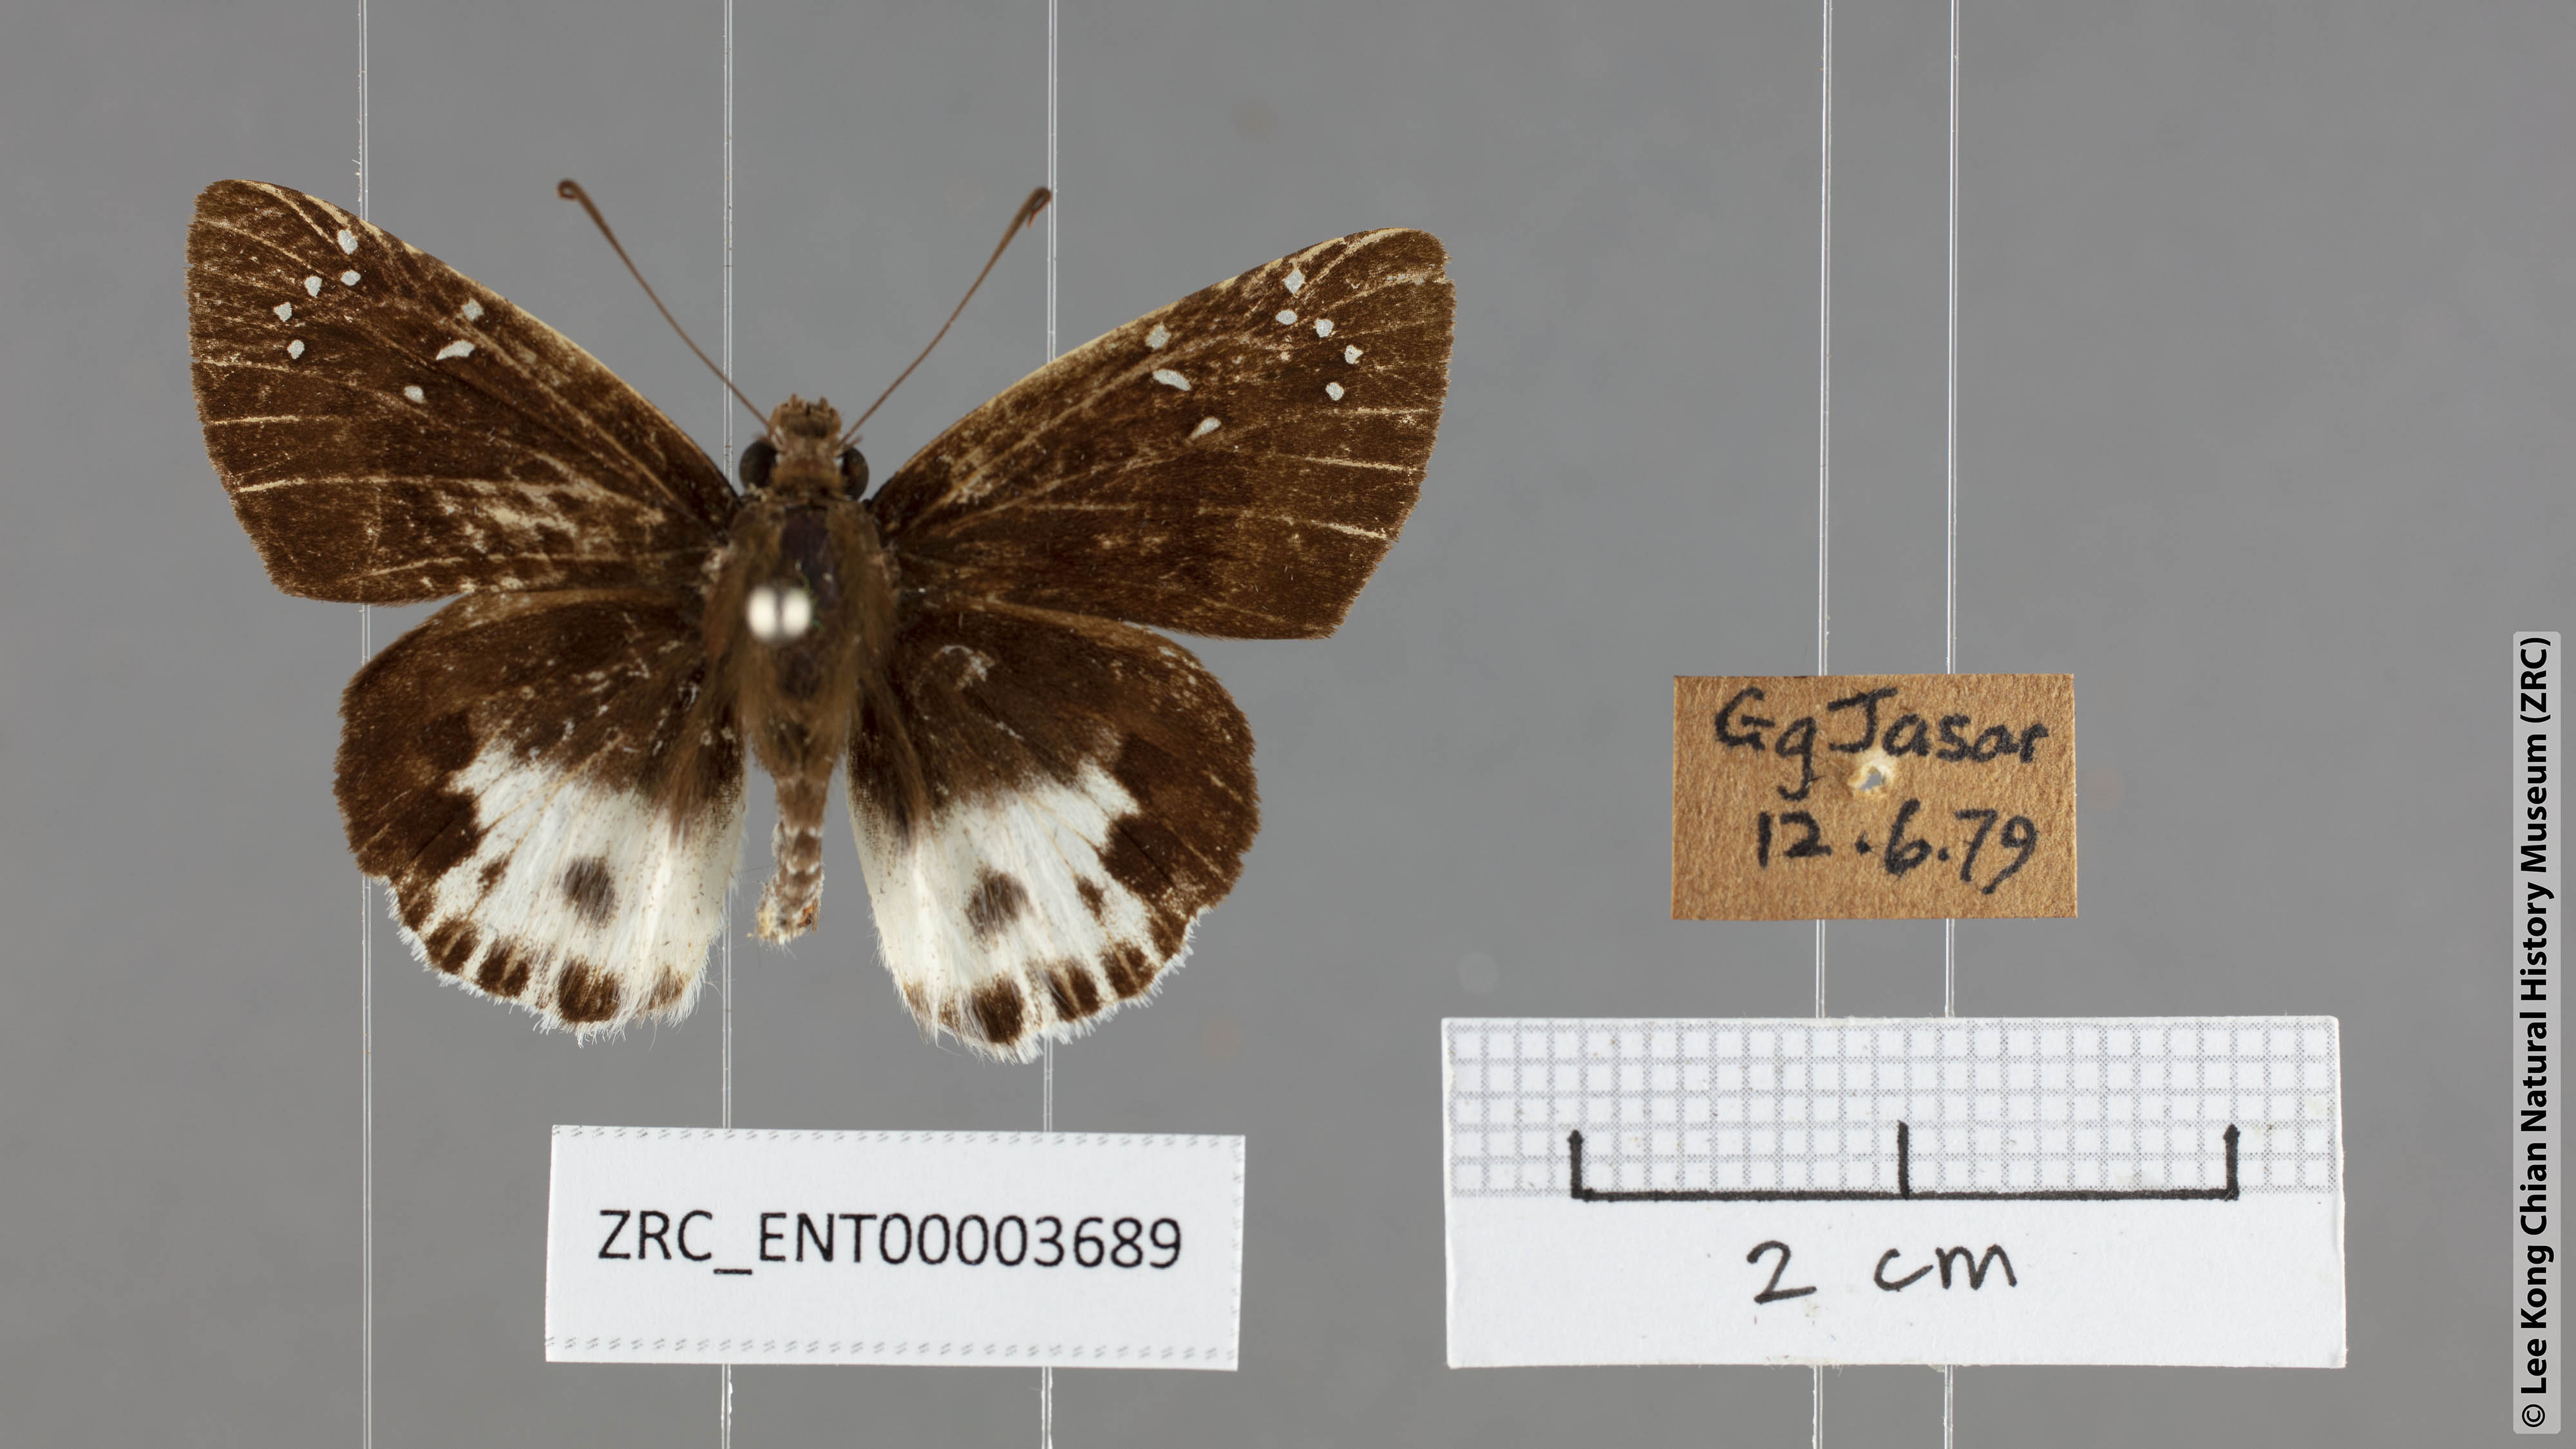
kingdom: Animalia
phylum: Arthropoda
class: Insecta
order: Lepidoptera
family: Hesperiidae
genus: Tagiades
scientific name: Tagiades cohaerens
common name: White-striped snow flat
